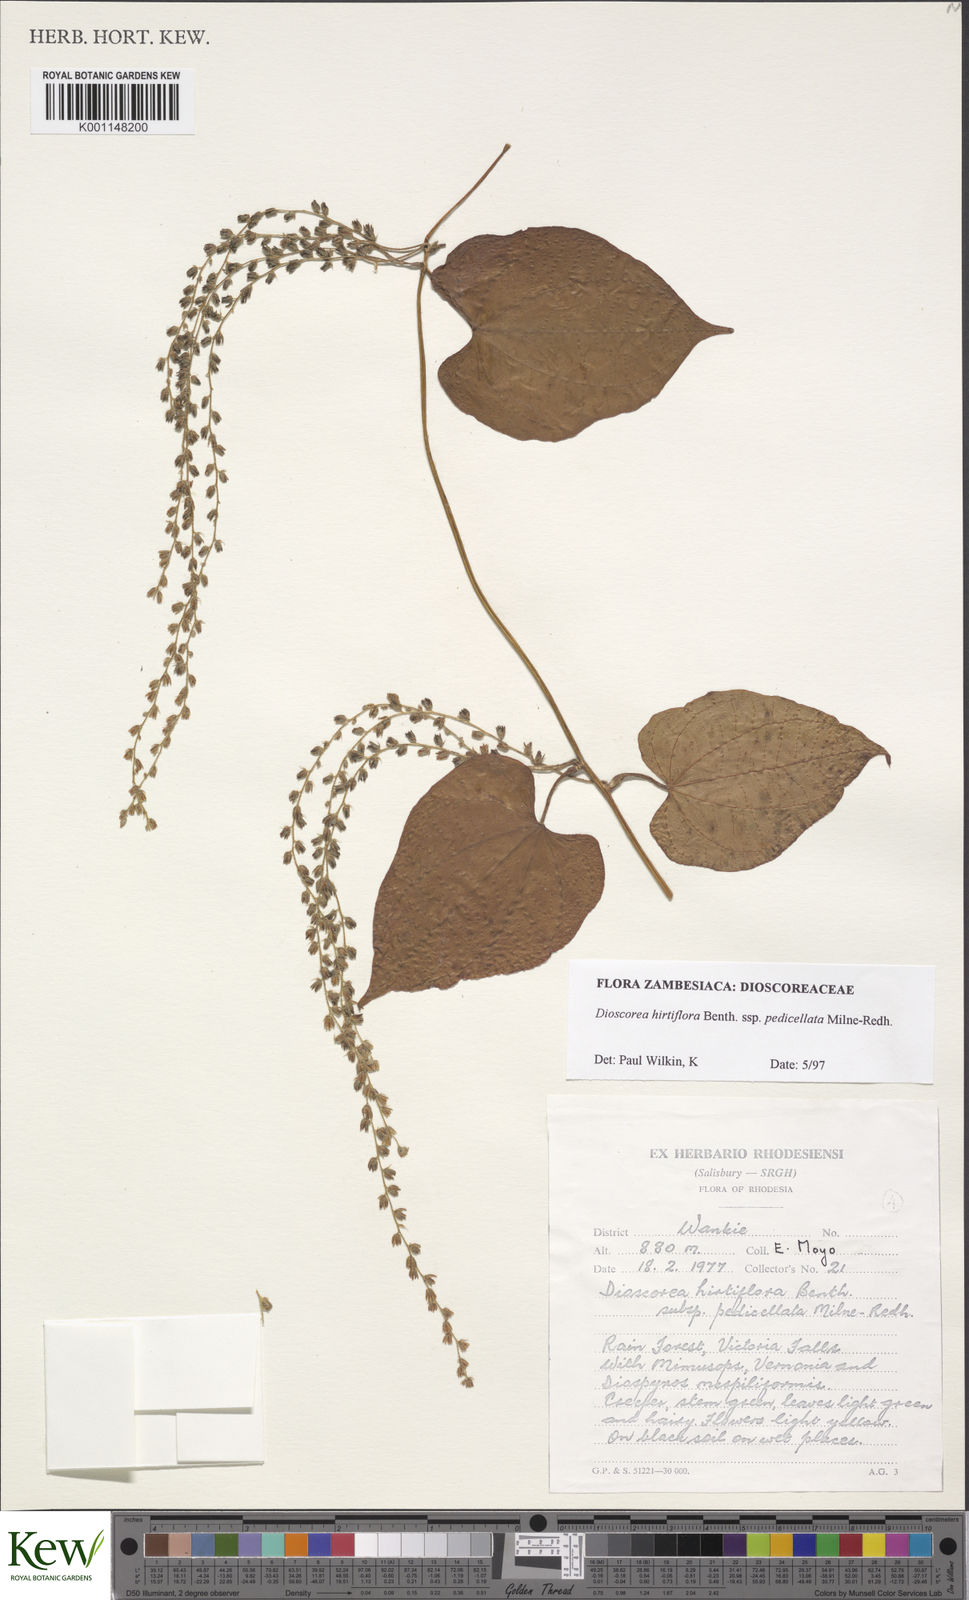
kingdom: Plantae
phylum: Tracheophyta
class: Liliopsida
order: Dioscoreales
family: Dioscoreaceae
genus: Dioscorea
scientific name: Dioscorea hirtiflora
